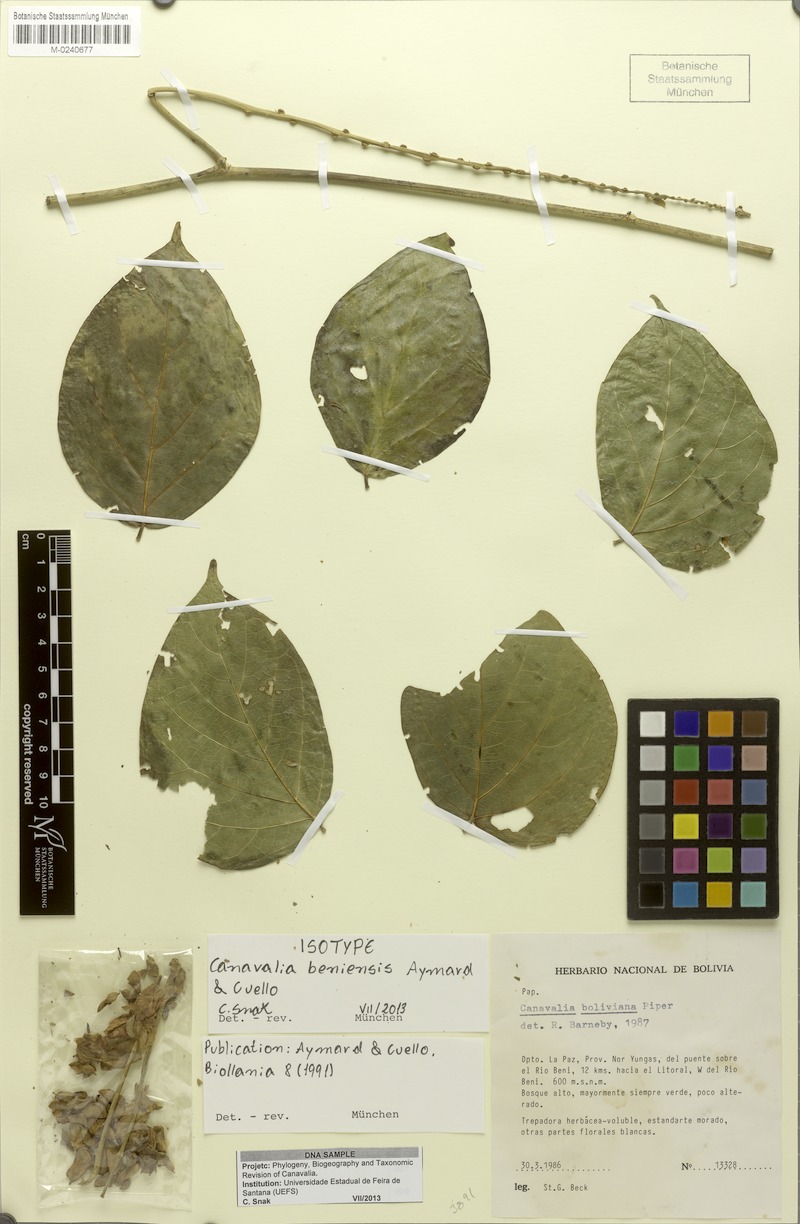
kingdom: Plantae
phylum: Tracheophyta
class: Magnoliopsida
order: Fabales
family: Fabaceae
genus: Canavalia
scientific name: Canavalia beniensis
